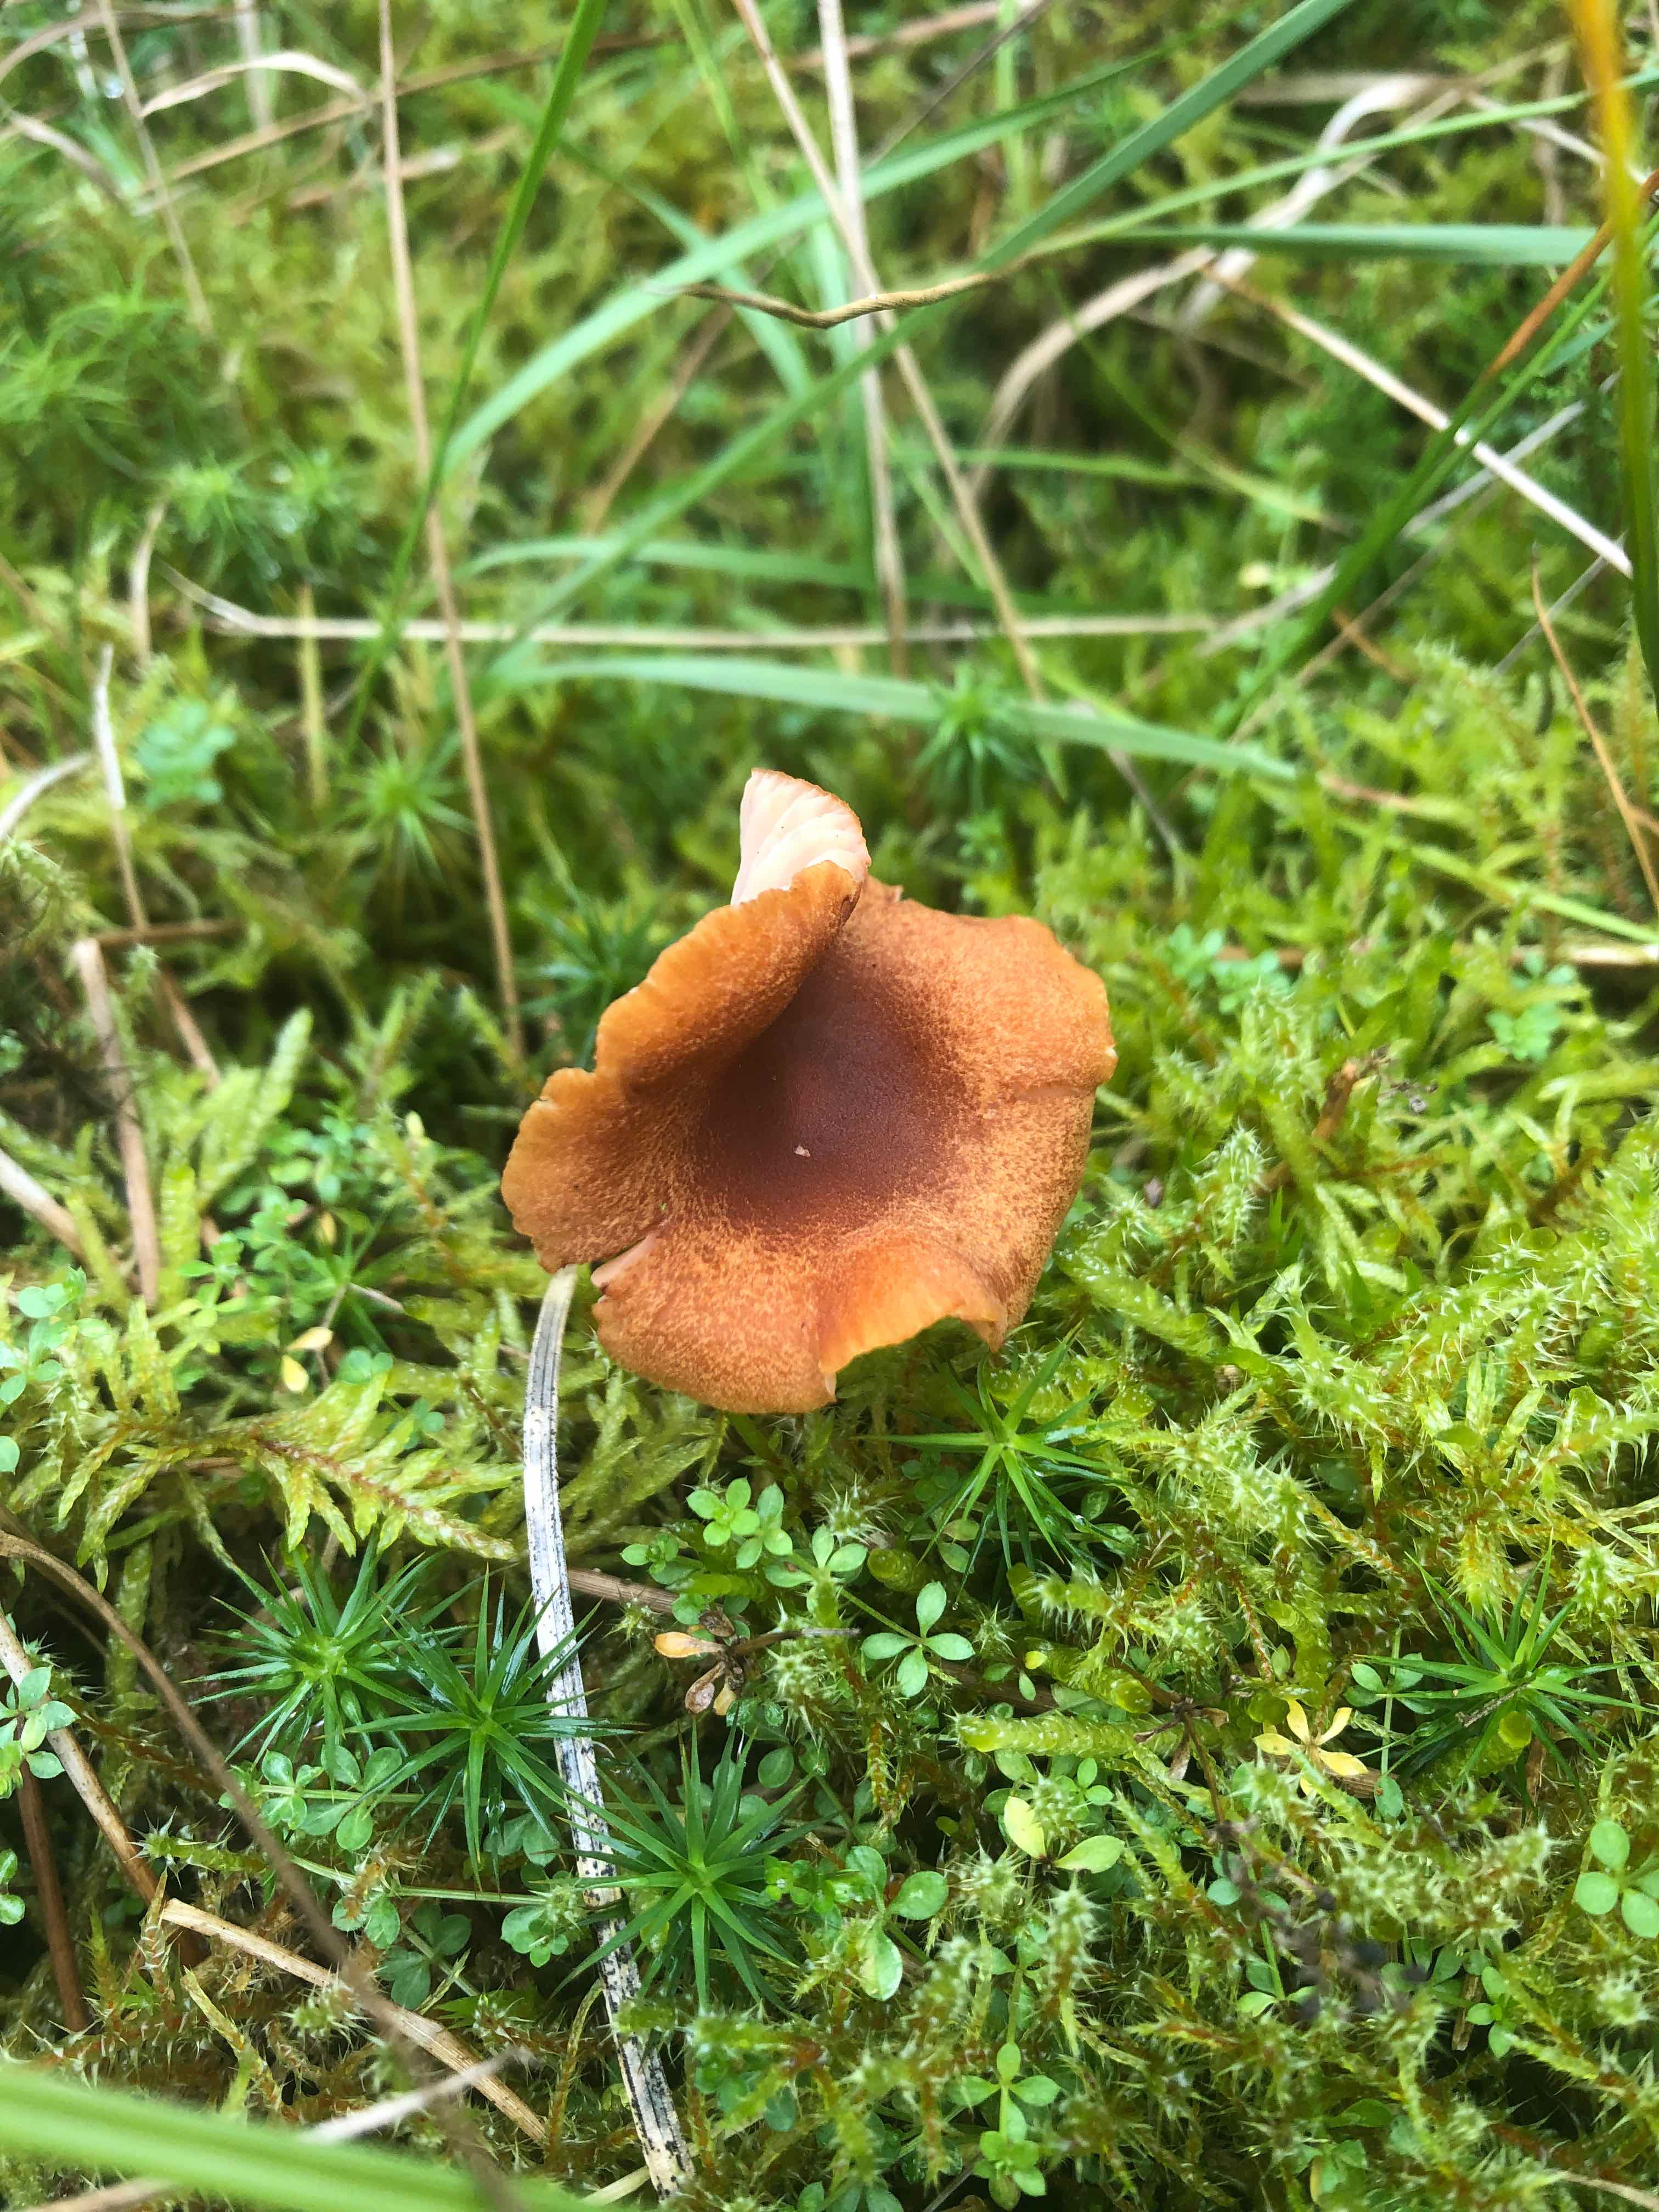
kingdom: Fungi
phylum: Basidiomycota
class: Agaricomycetes
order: Agaricales
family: Hydnangiaceae
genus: Laccaria
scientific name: Laccaria proxima
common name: stor ametysthat
